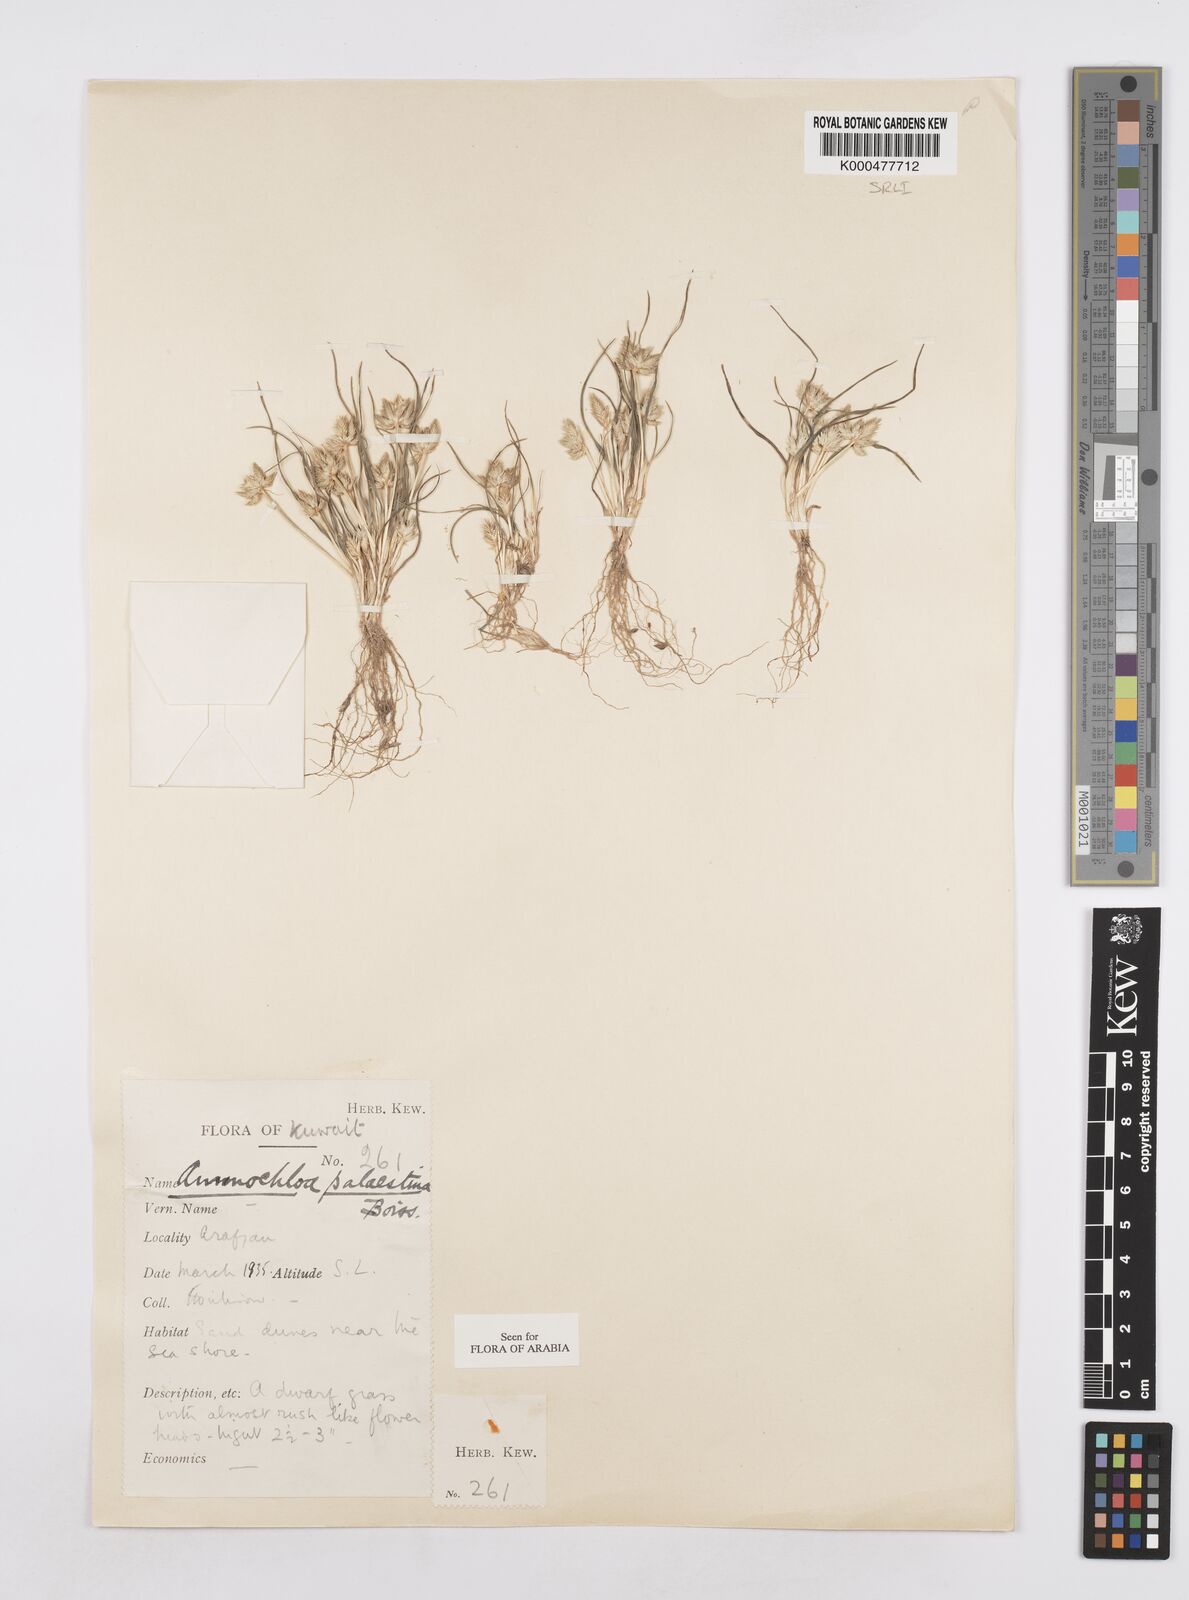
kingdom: Plantae
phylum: Tracheophyta
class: Liliopsida
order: Poales
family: Poaceae
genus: Ammochloa
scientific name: Ammochloa palaestina
